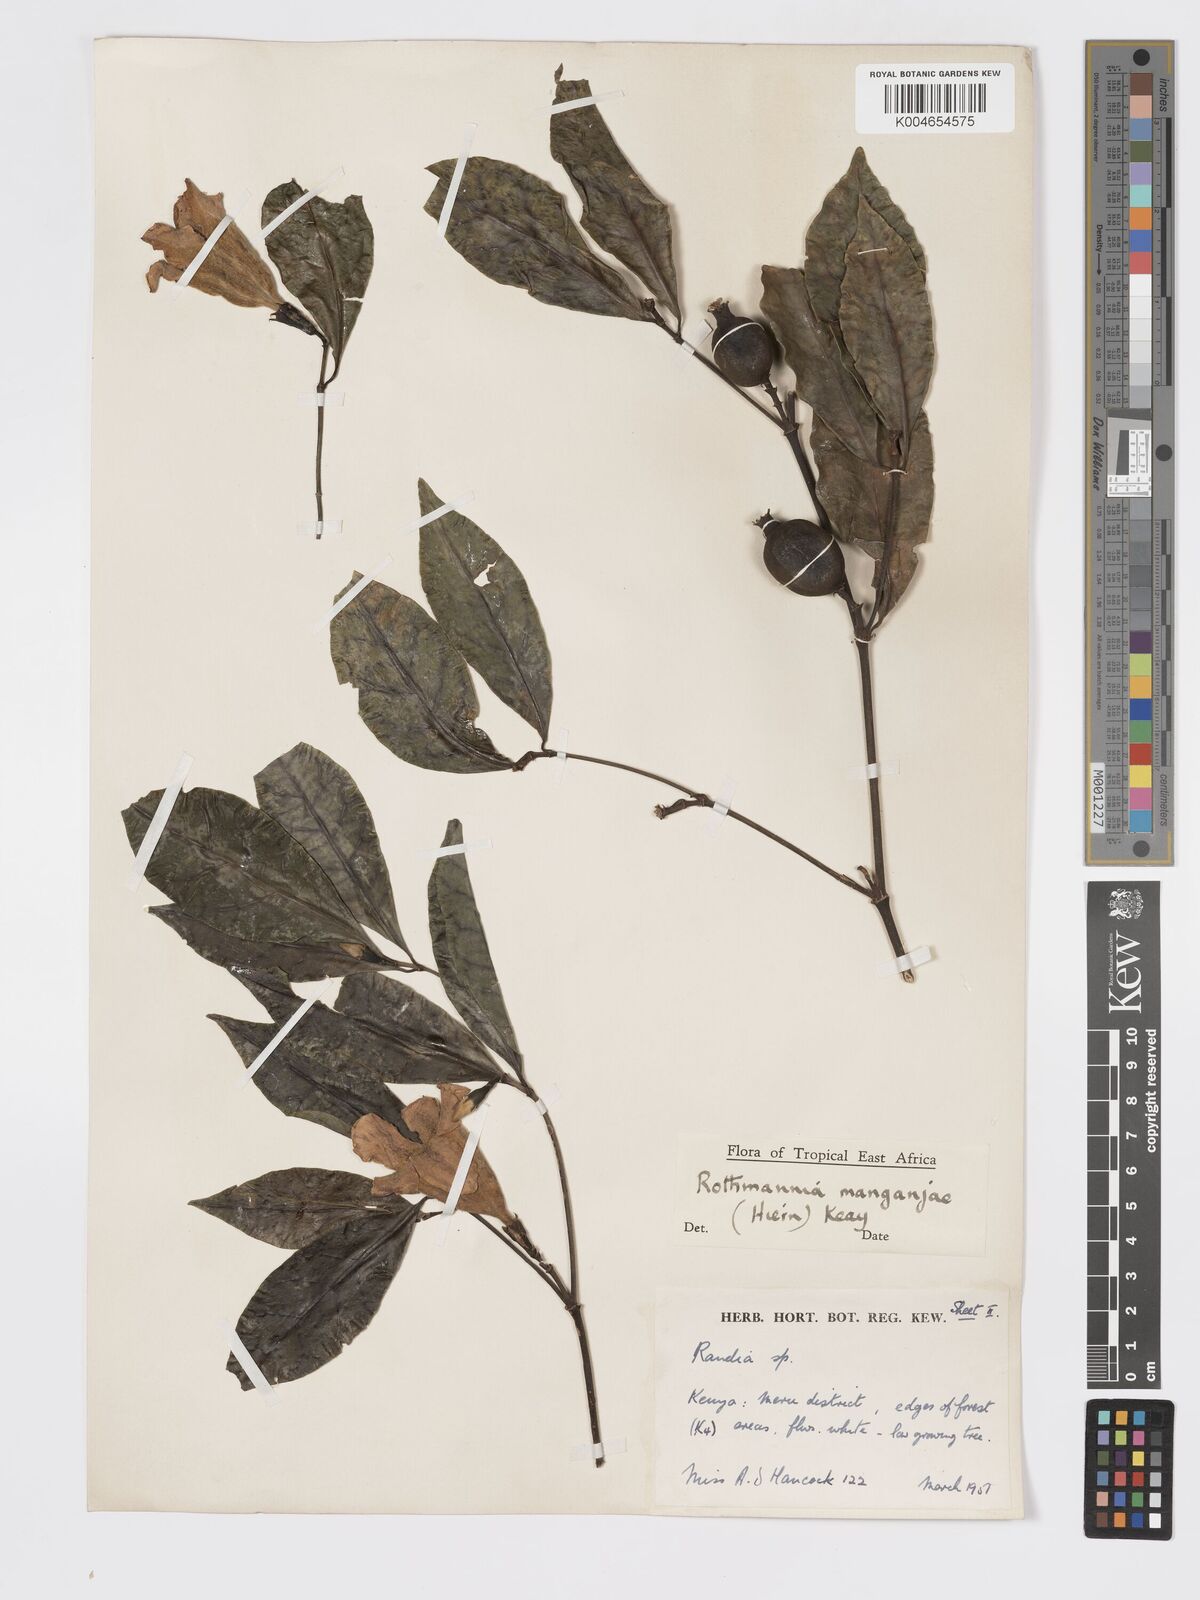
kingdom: Plantae
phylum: Tracheophyta
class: Magnoliopsida
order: Gentianales
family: Rubiaceae
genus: Rothmannia
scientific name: Rothmannia manganjae
